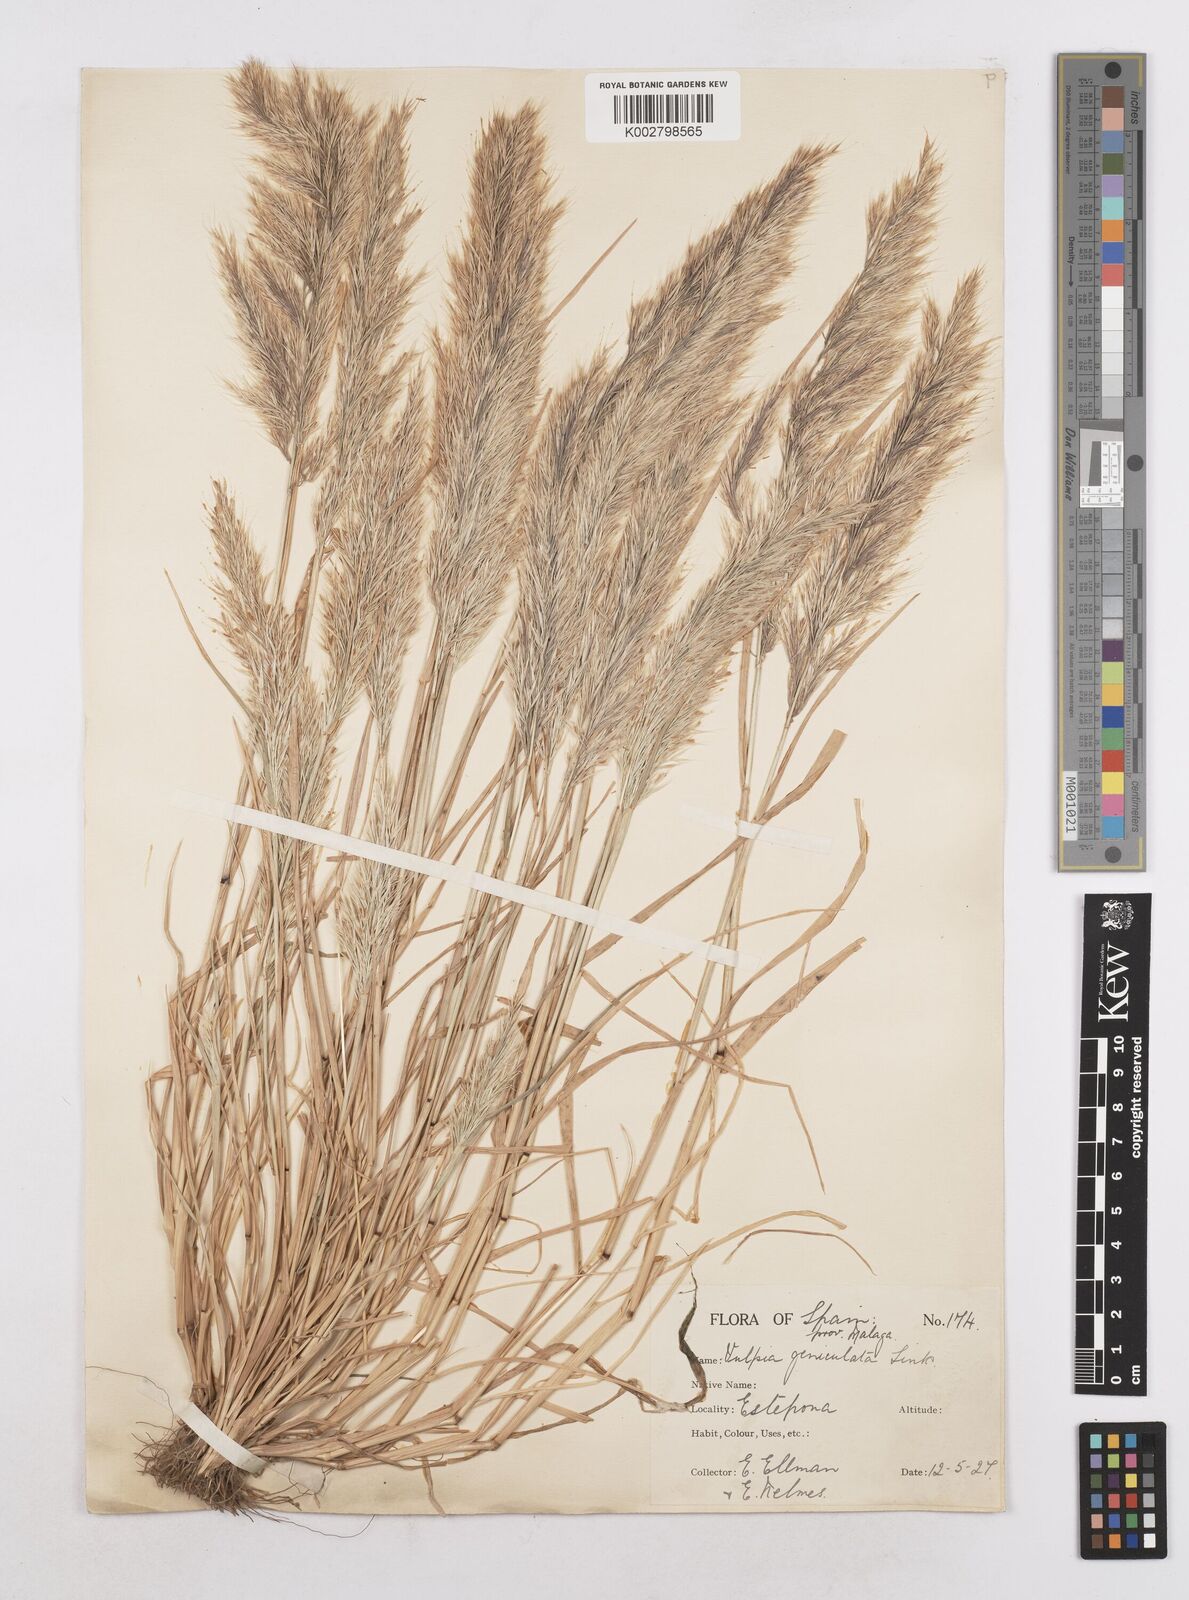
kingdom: Plantae
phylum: Tracheophyta
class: Liliopsida
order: Poales
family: Poaceae
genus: Festuca
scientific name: Festuca geniculata
